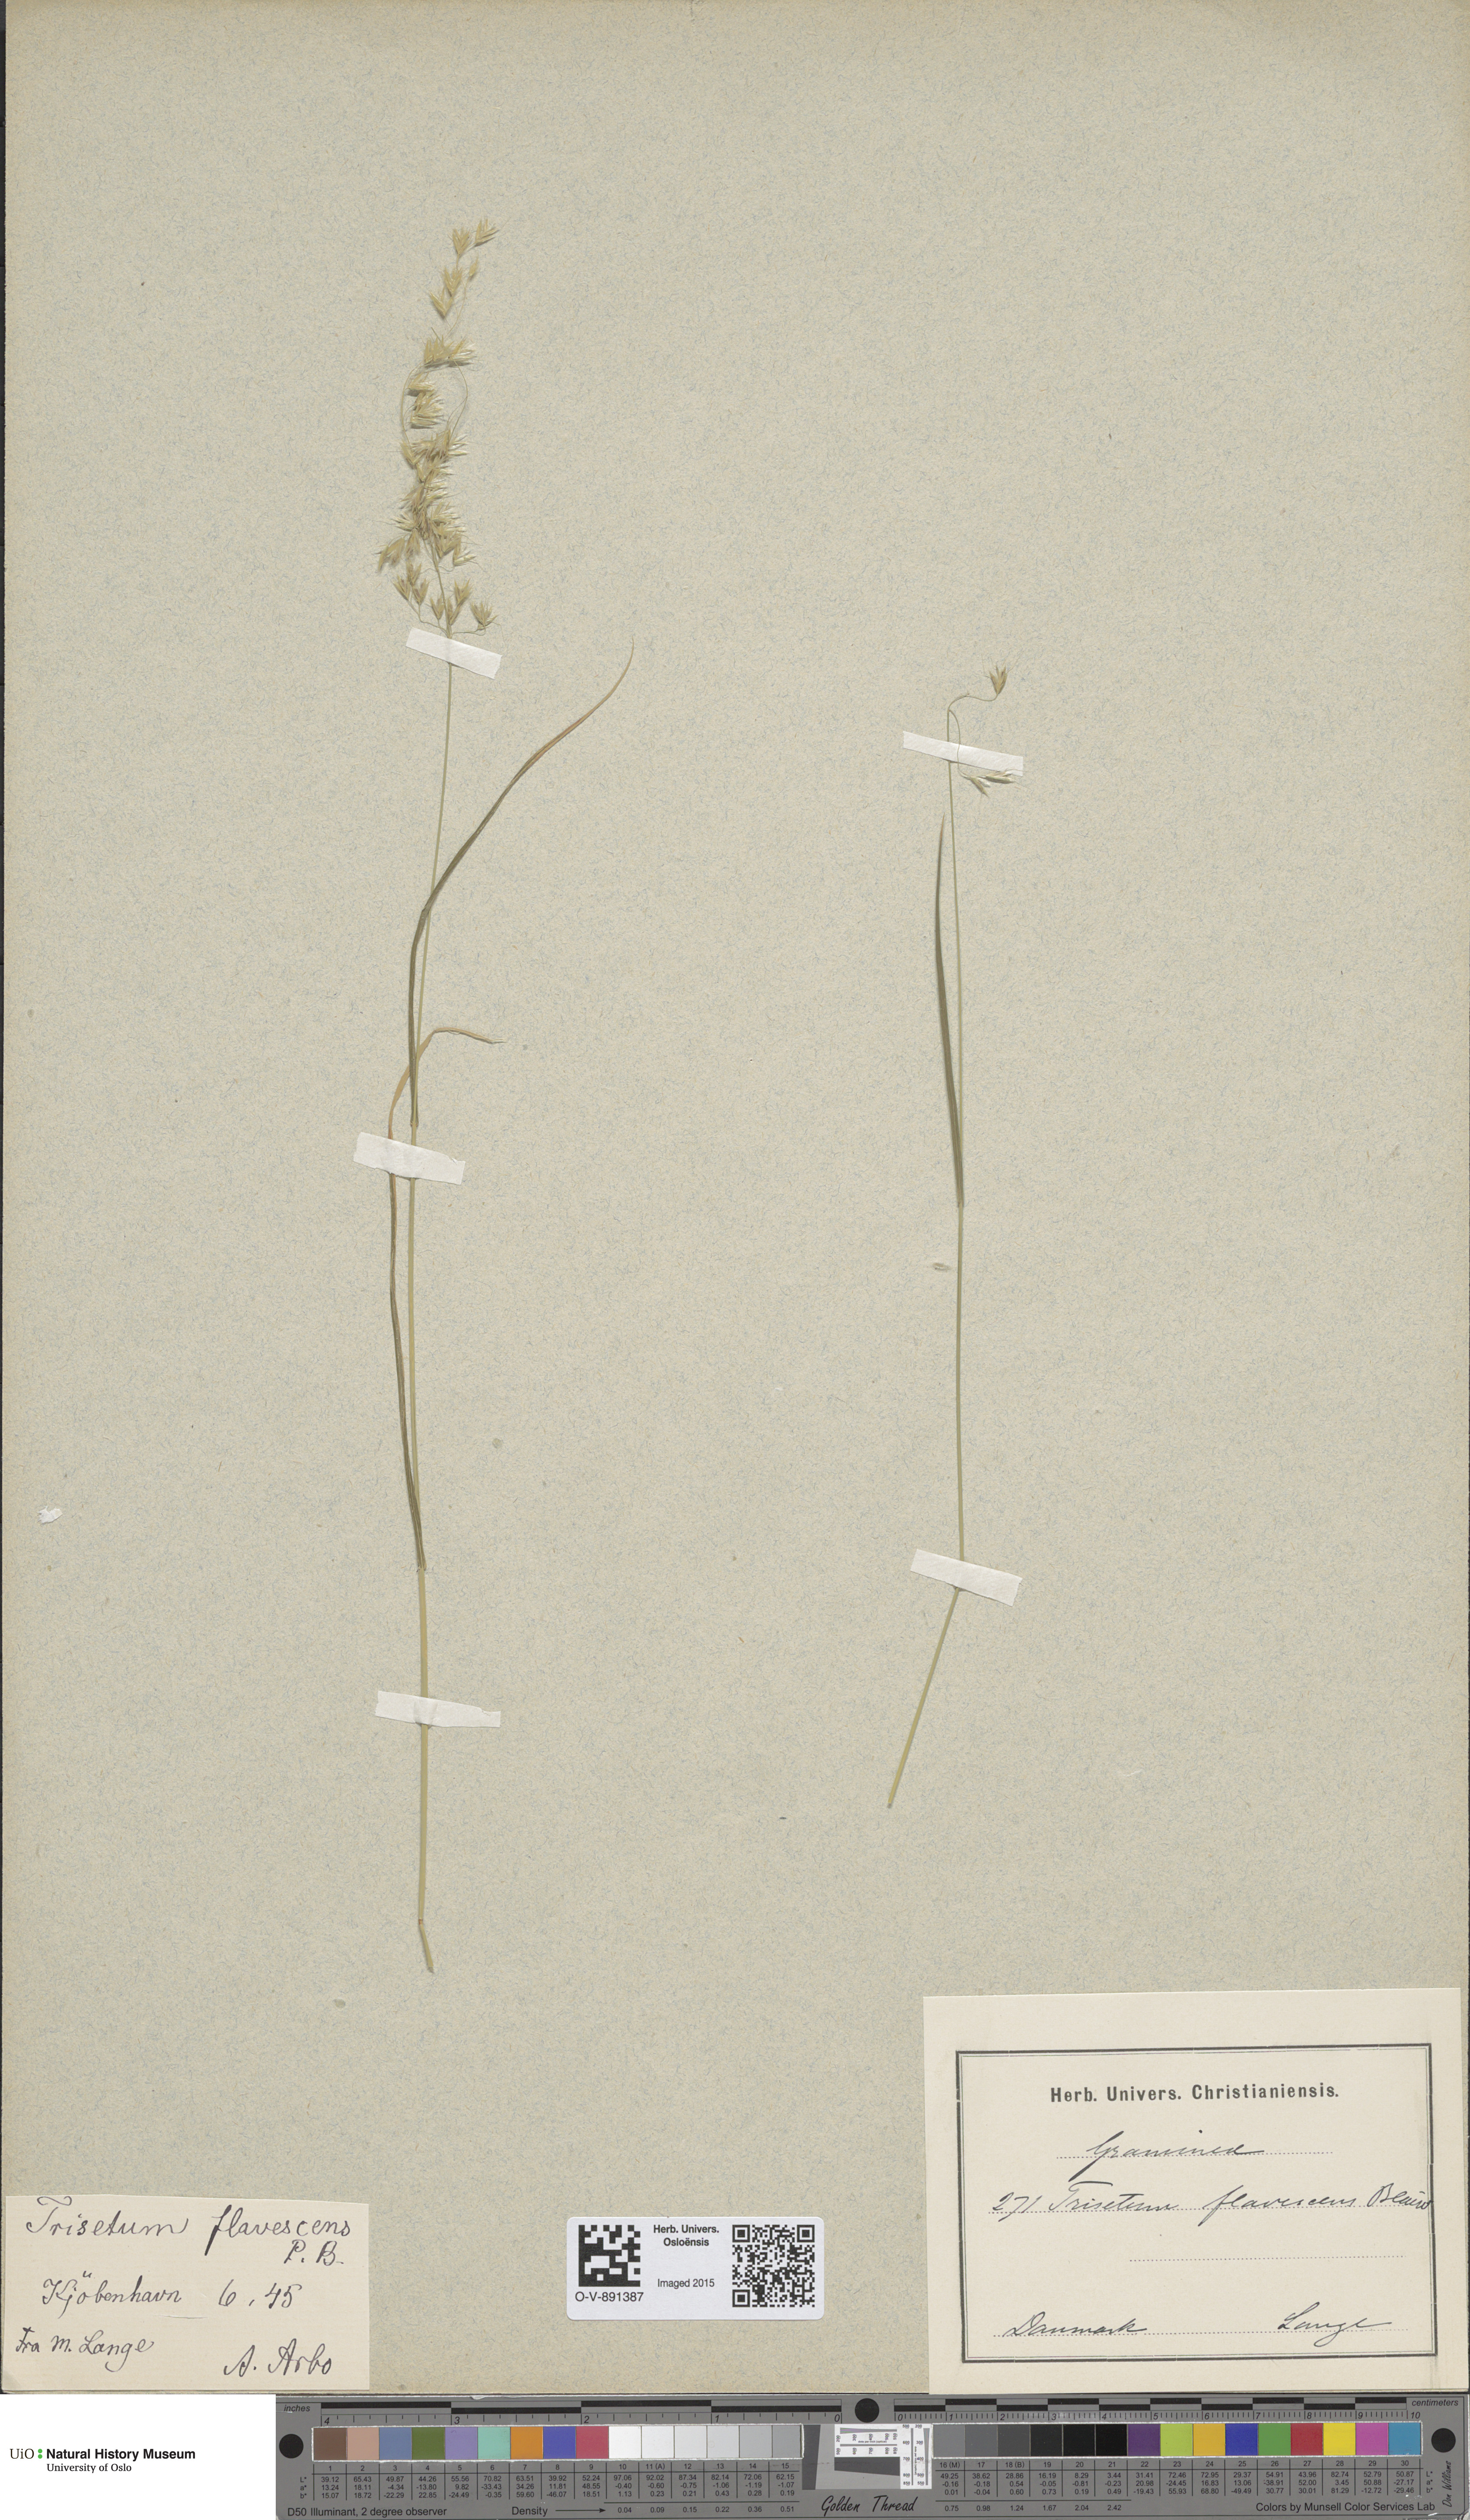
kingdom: Plantae
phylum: Tracheophyta
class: Liliopsida
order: Poales
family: Poaceae
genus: Trisetum
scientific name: Trisetum flavescens
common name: Yellow oat-grass
